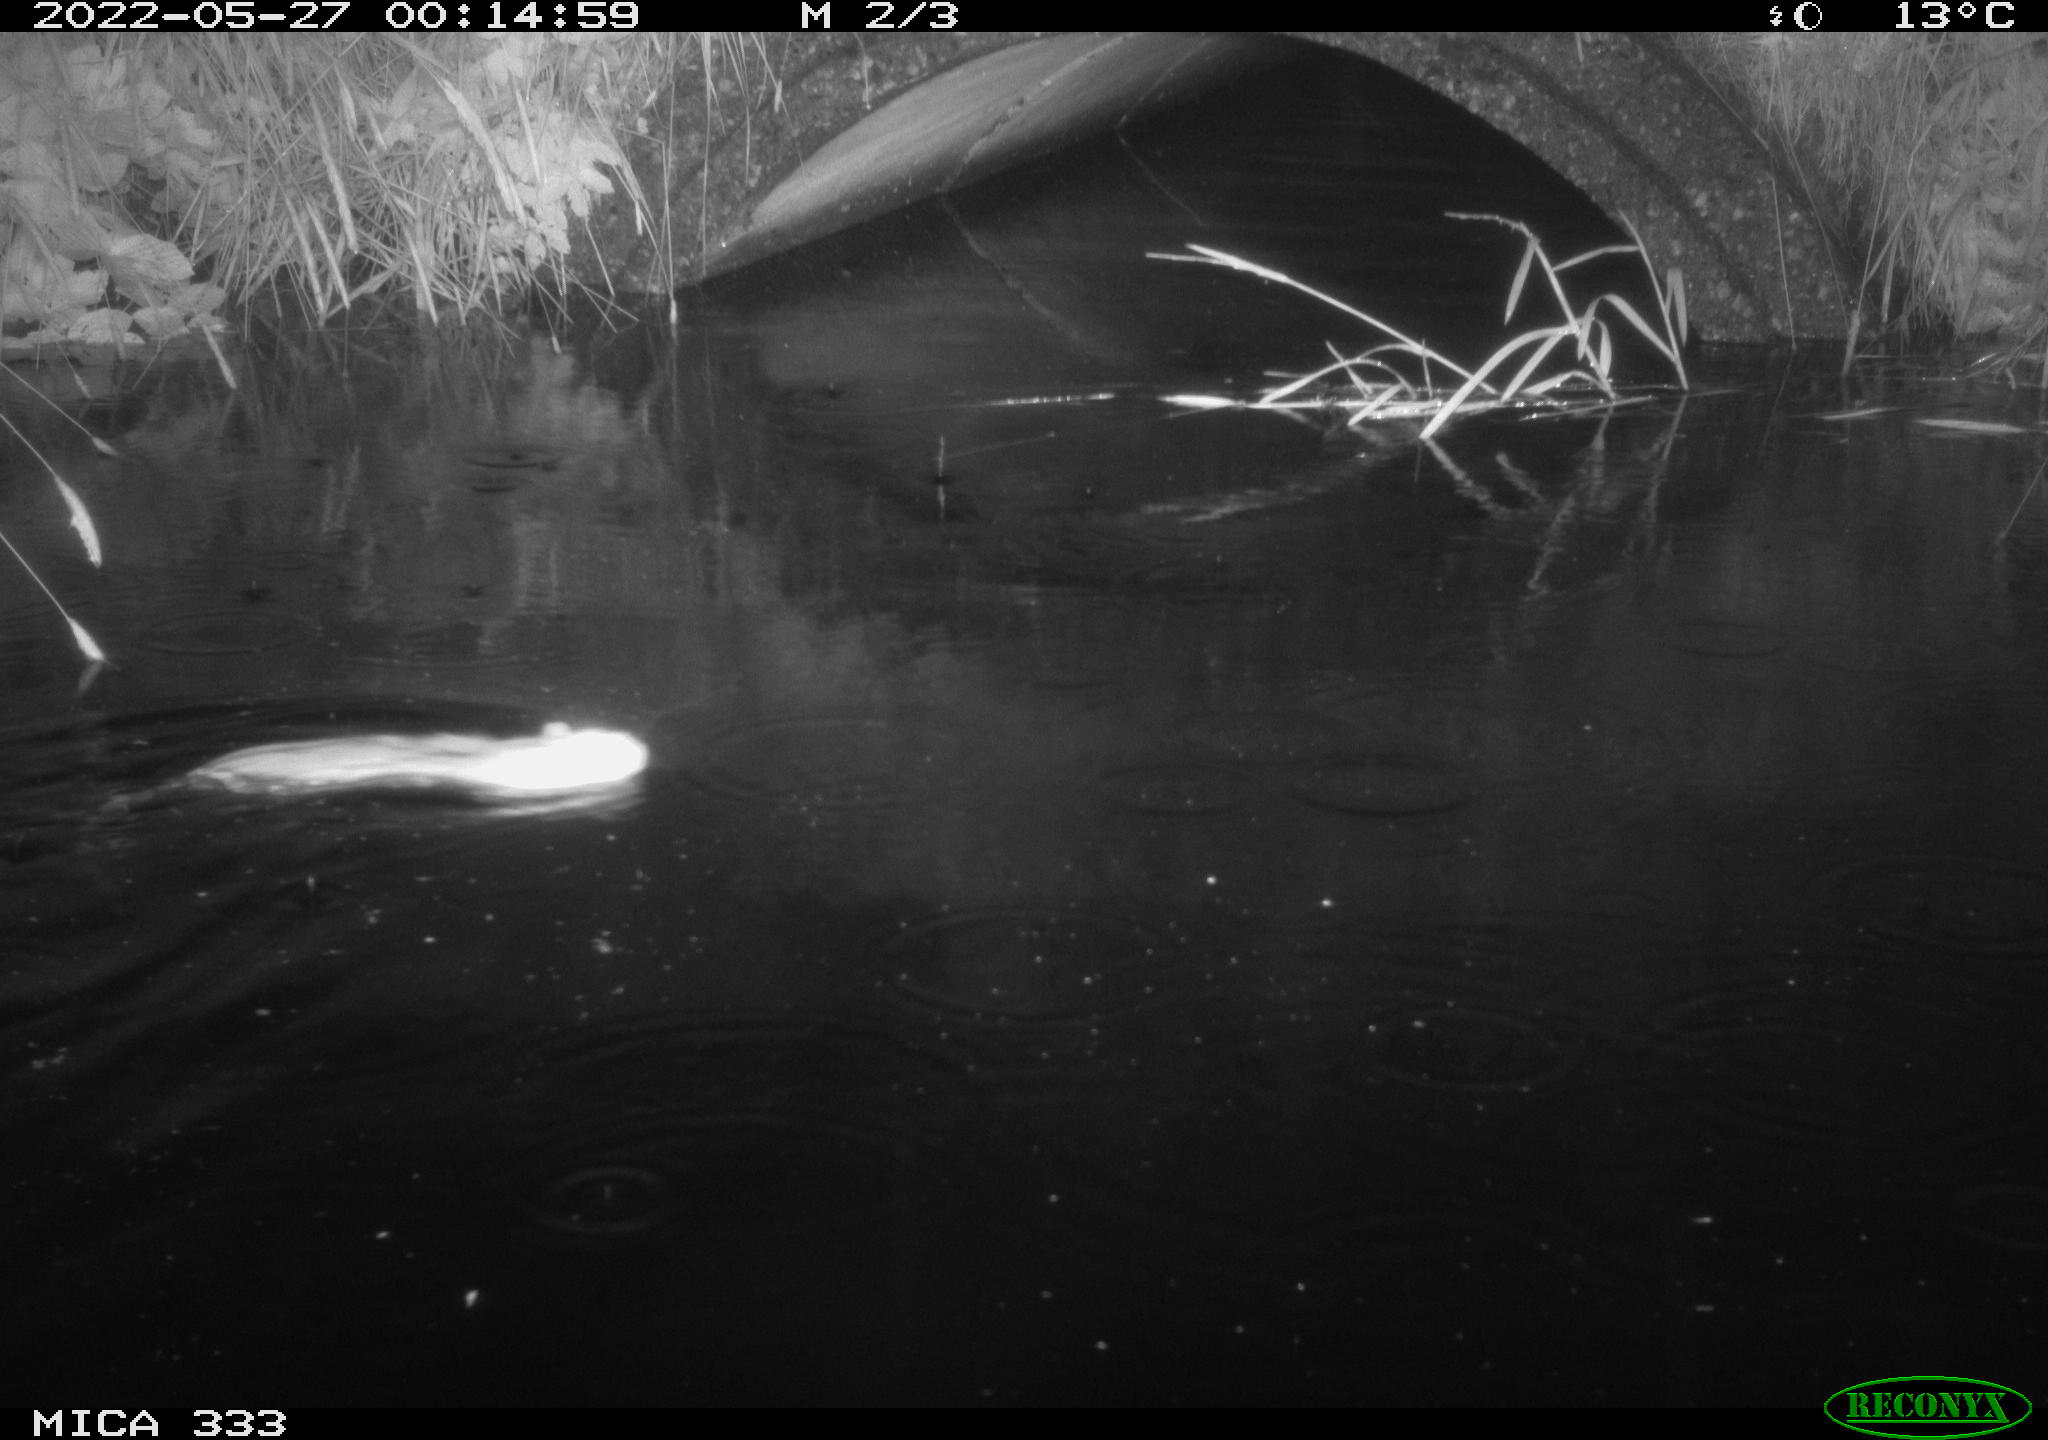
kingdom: Animalia
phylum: Chordata
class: Mammalia
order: Rodentia
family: Muridae
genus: Rattus
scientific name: Rattus norvegicus
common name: Brown rat
